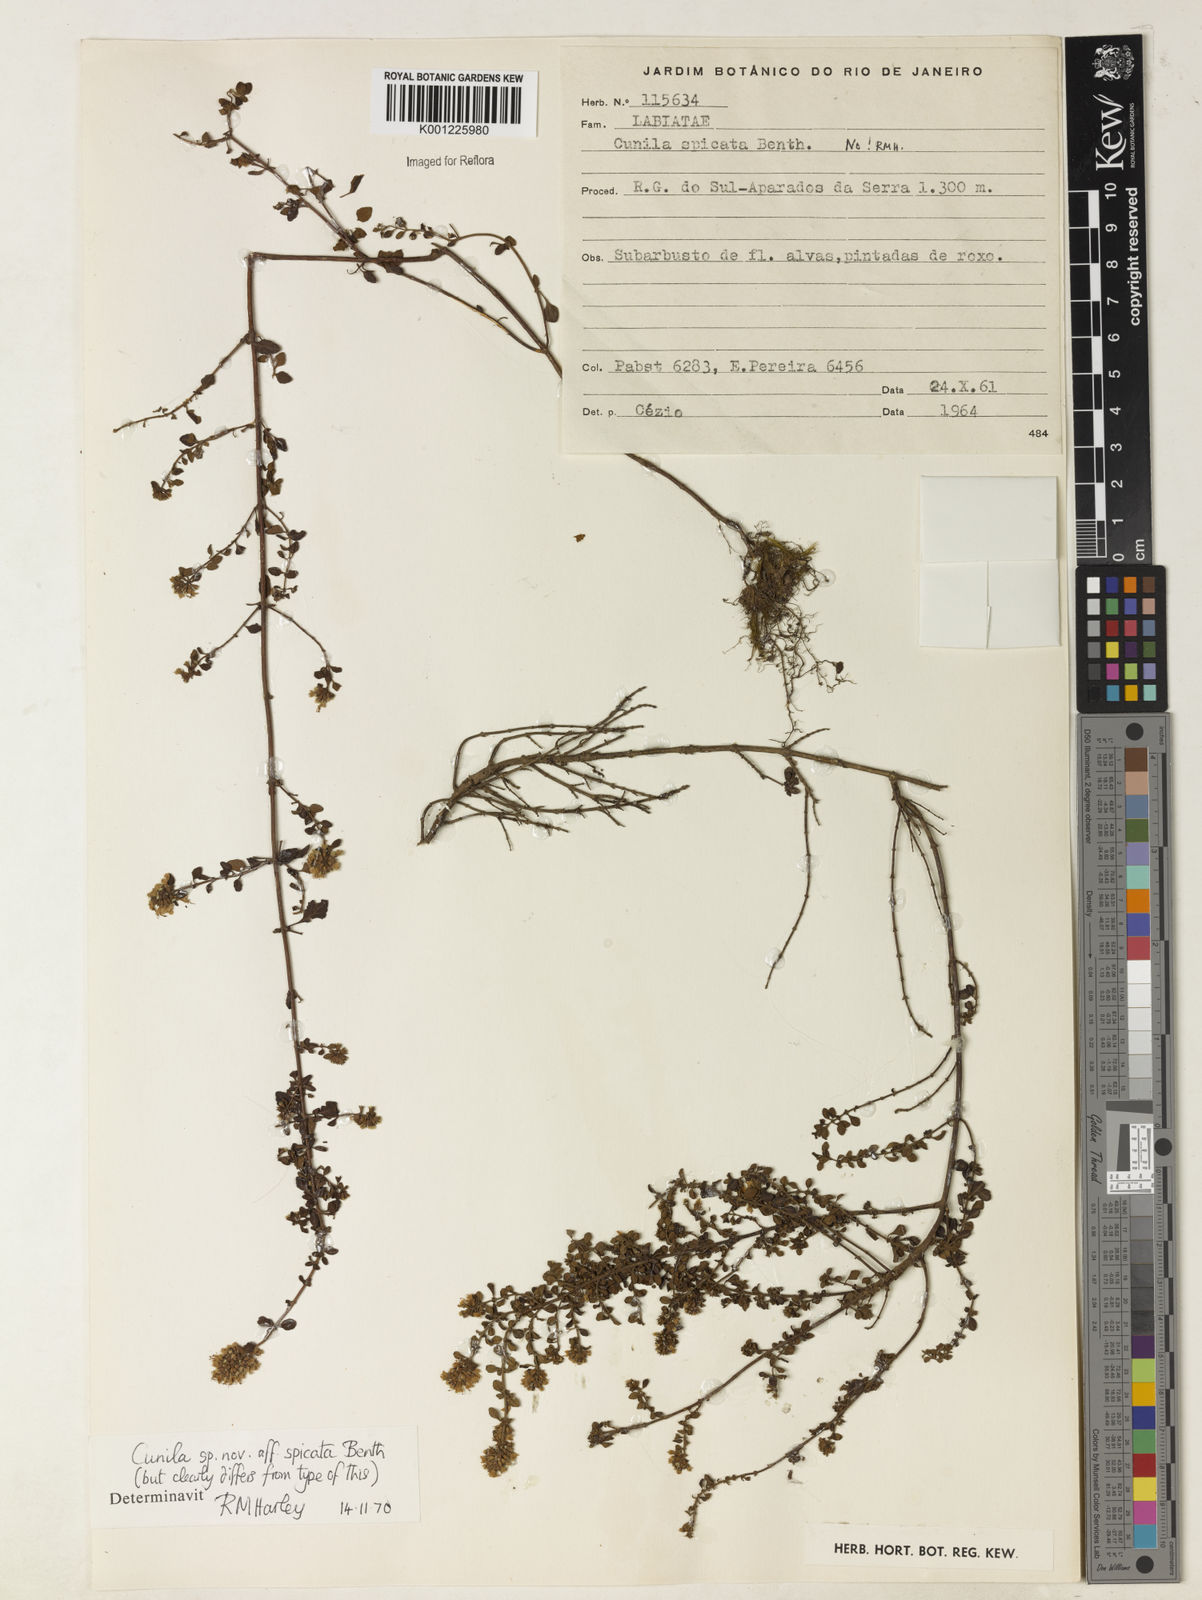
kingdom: Plantae
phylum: Tracheophyta
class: Magnoliopsida
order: Lamiales
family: Lamiaceae
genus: Cunila
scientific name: Cunila spicata
